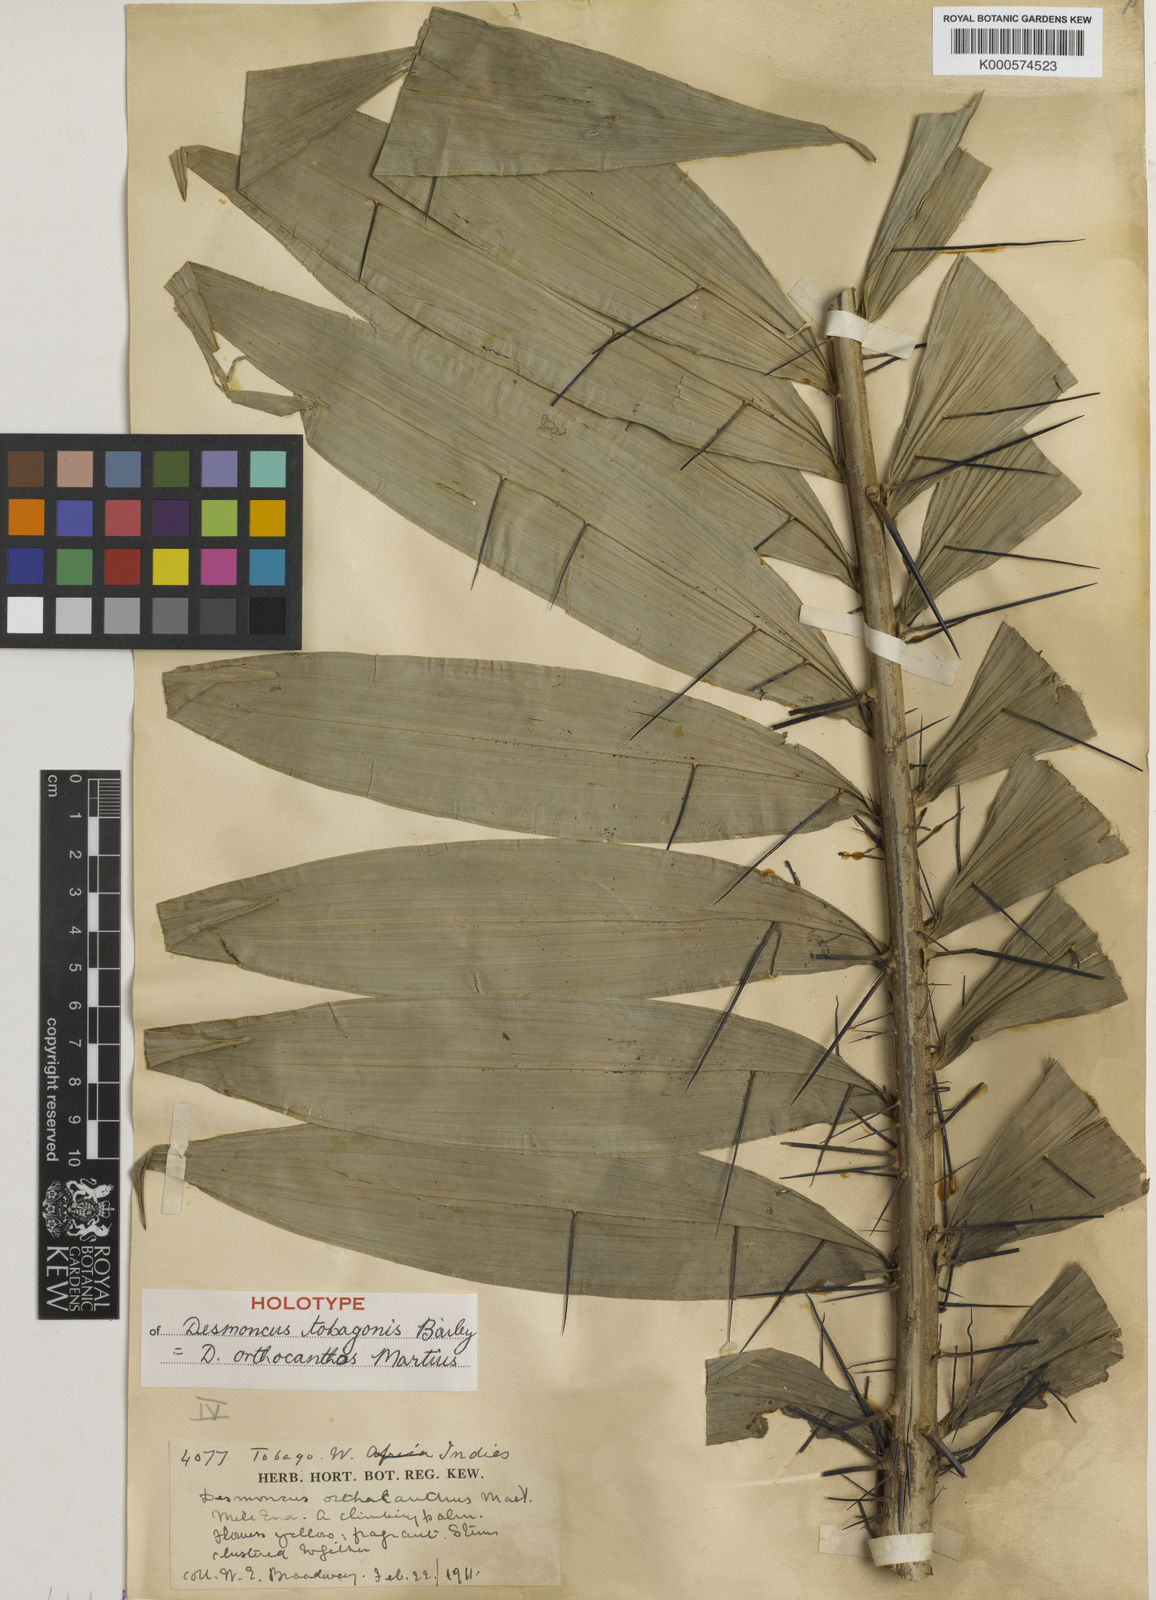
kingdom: Plantae
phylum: Tracheophyta
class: Liliopsida
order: Arecales
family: Arecaceae
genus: Desmoncus
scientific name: Desmoncus orthacanthos
